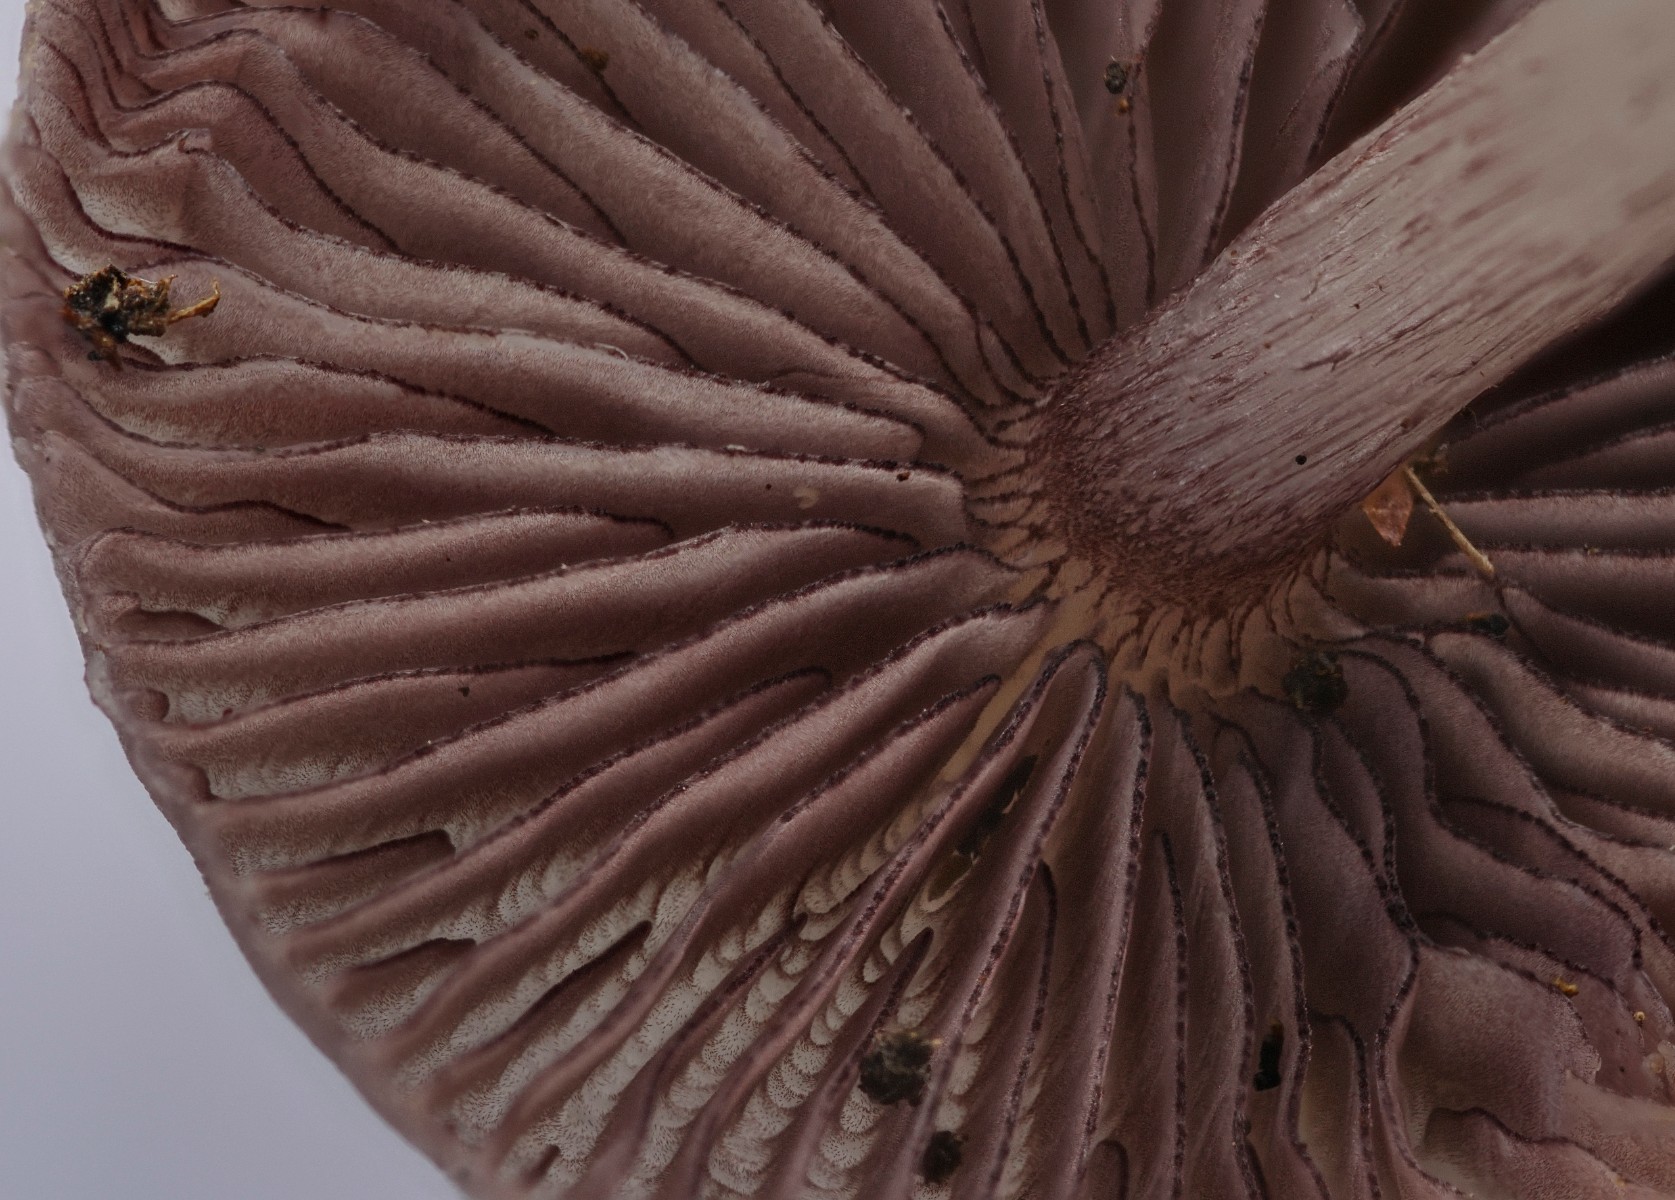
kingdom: Fungi
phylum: Basidiomycota
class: Agaricomycetes
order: Agaricales
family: Mycenaceae
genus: Mycena
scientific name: Mycena pelianthina
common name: mørkbladet huesvamp
